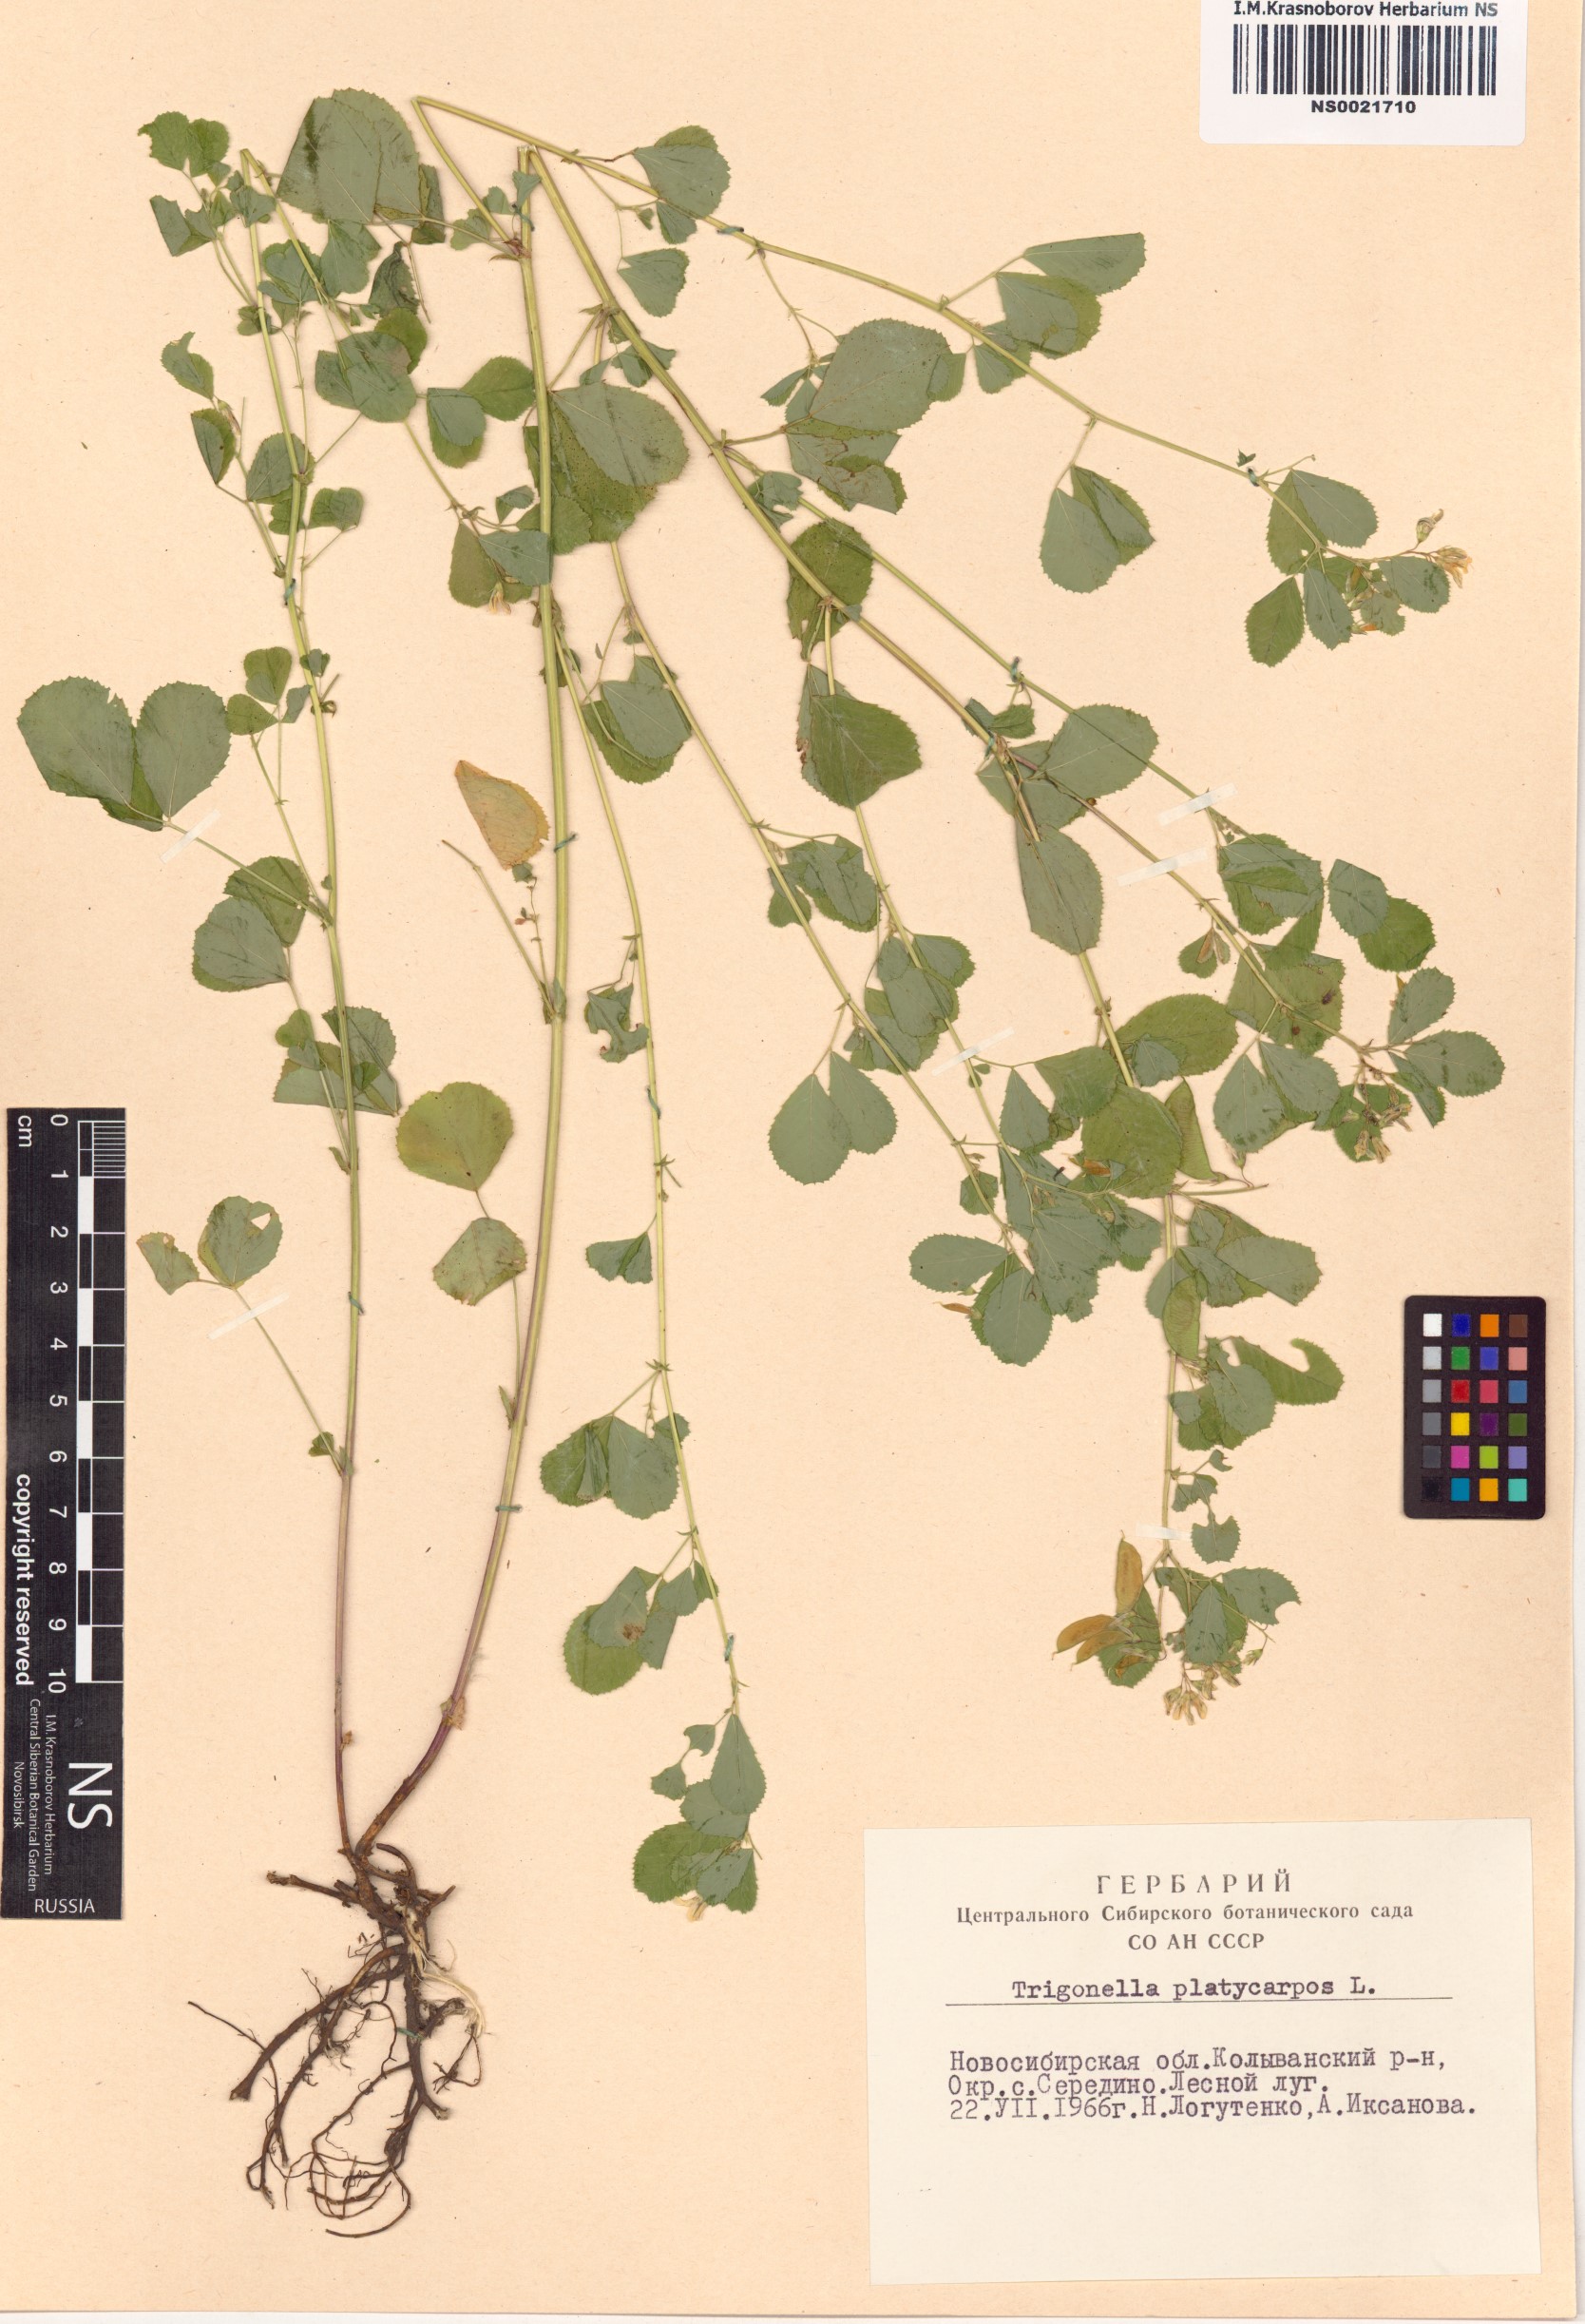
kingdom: Plantae
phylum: Tracheophyta
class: Magnoliopsida
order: Fabales
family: Fabaceae
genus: Medicago
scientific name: Medicago platycarpos
